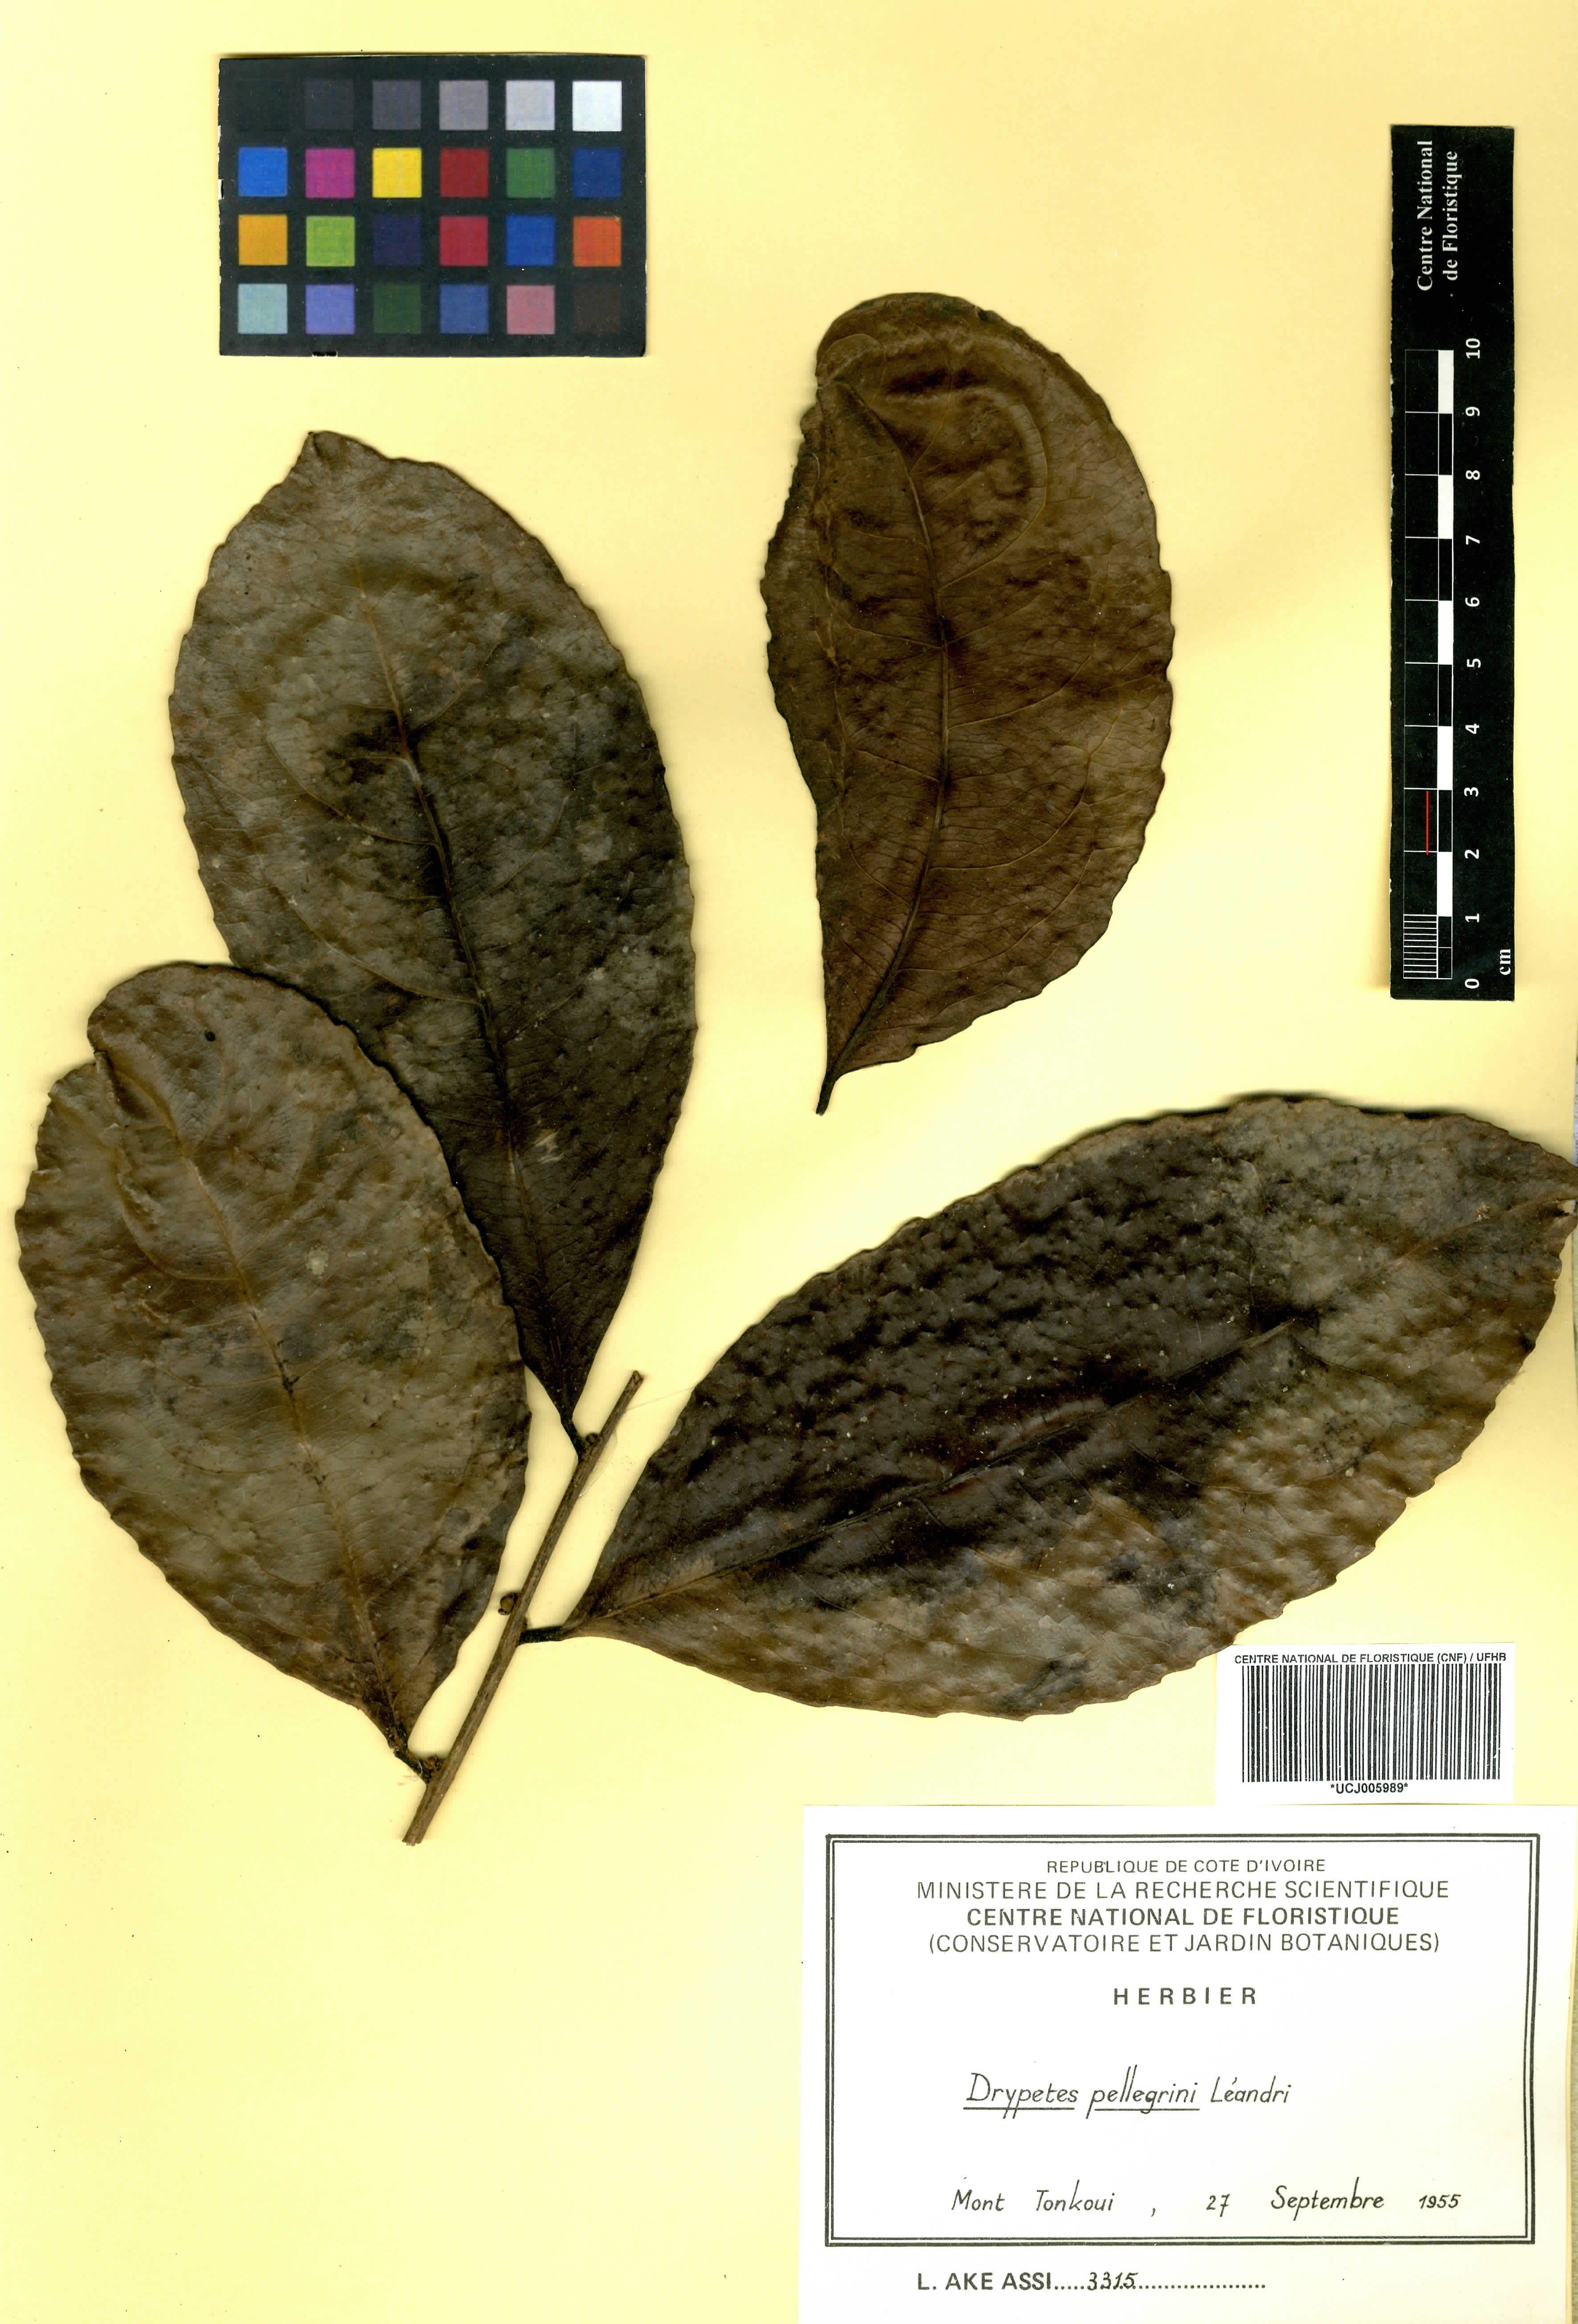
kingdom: Plantae
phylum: Tracheophyta
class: Magnoliopsida
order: Malpighiales
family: Putranjivaceae
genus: Drypetes
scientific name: Drypetes pellegrinii
